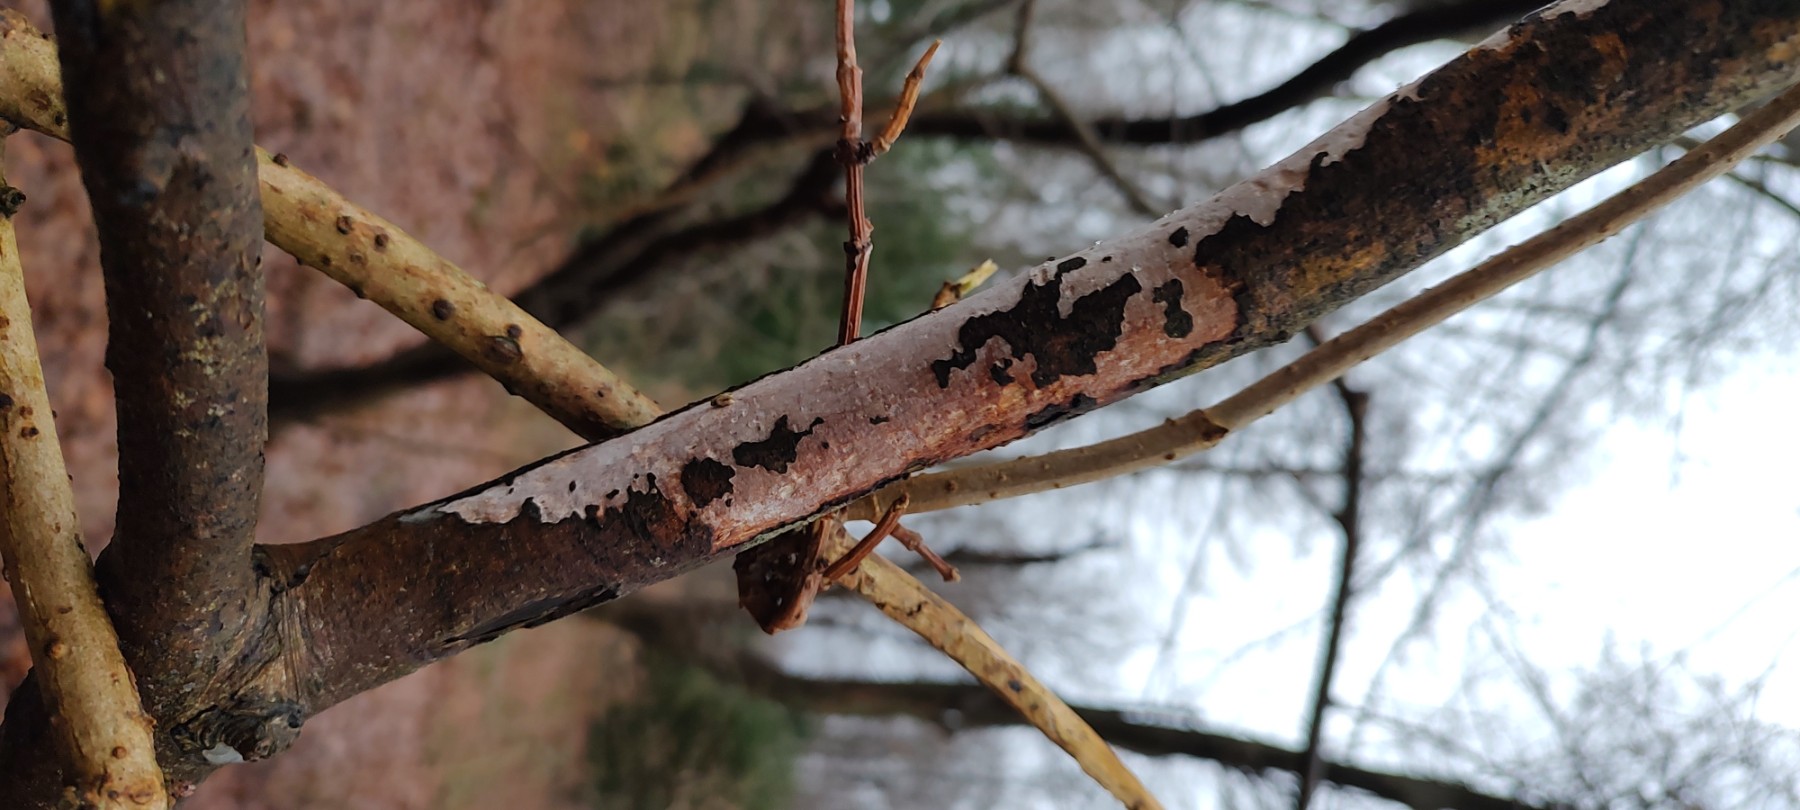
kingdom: Fungi
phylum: Basidiomycota
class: Agaricomycetes
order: Corticiales
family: Vuilleminiaceae
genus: Vuilleminia
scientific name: Vuilleminia cystidiata
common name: tjørne-barksprænger
